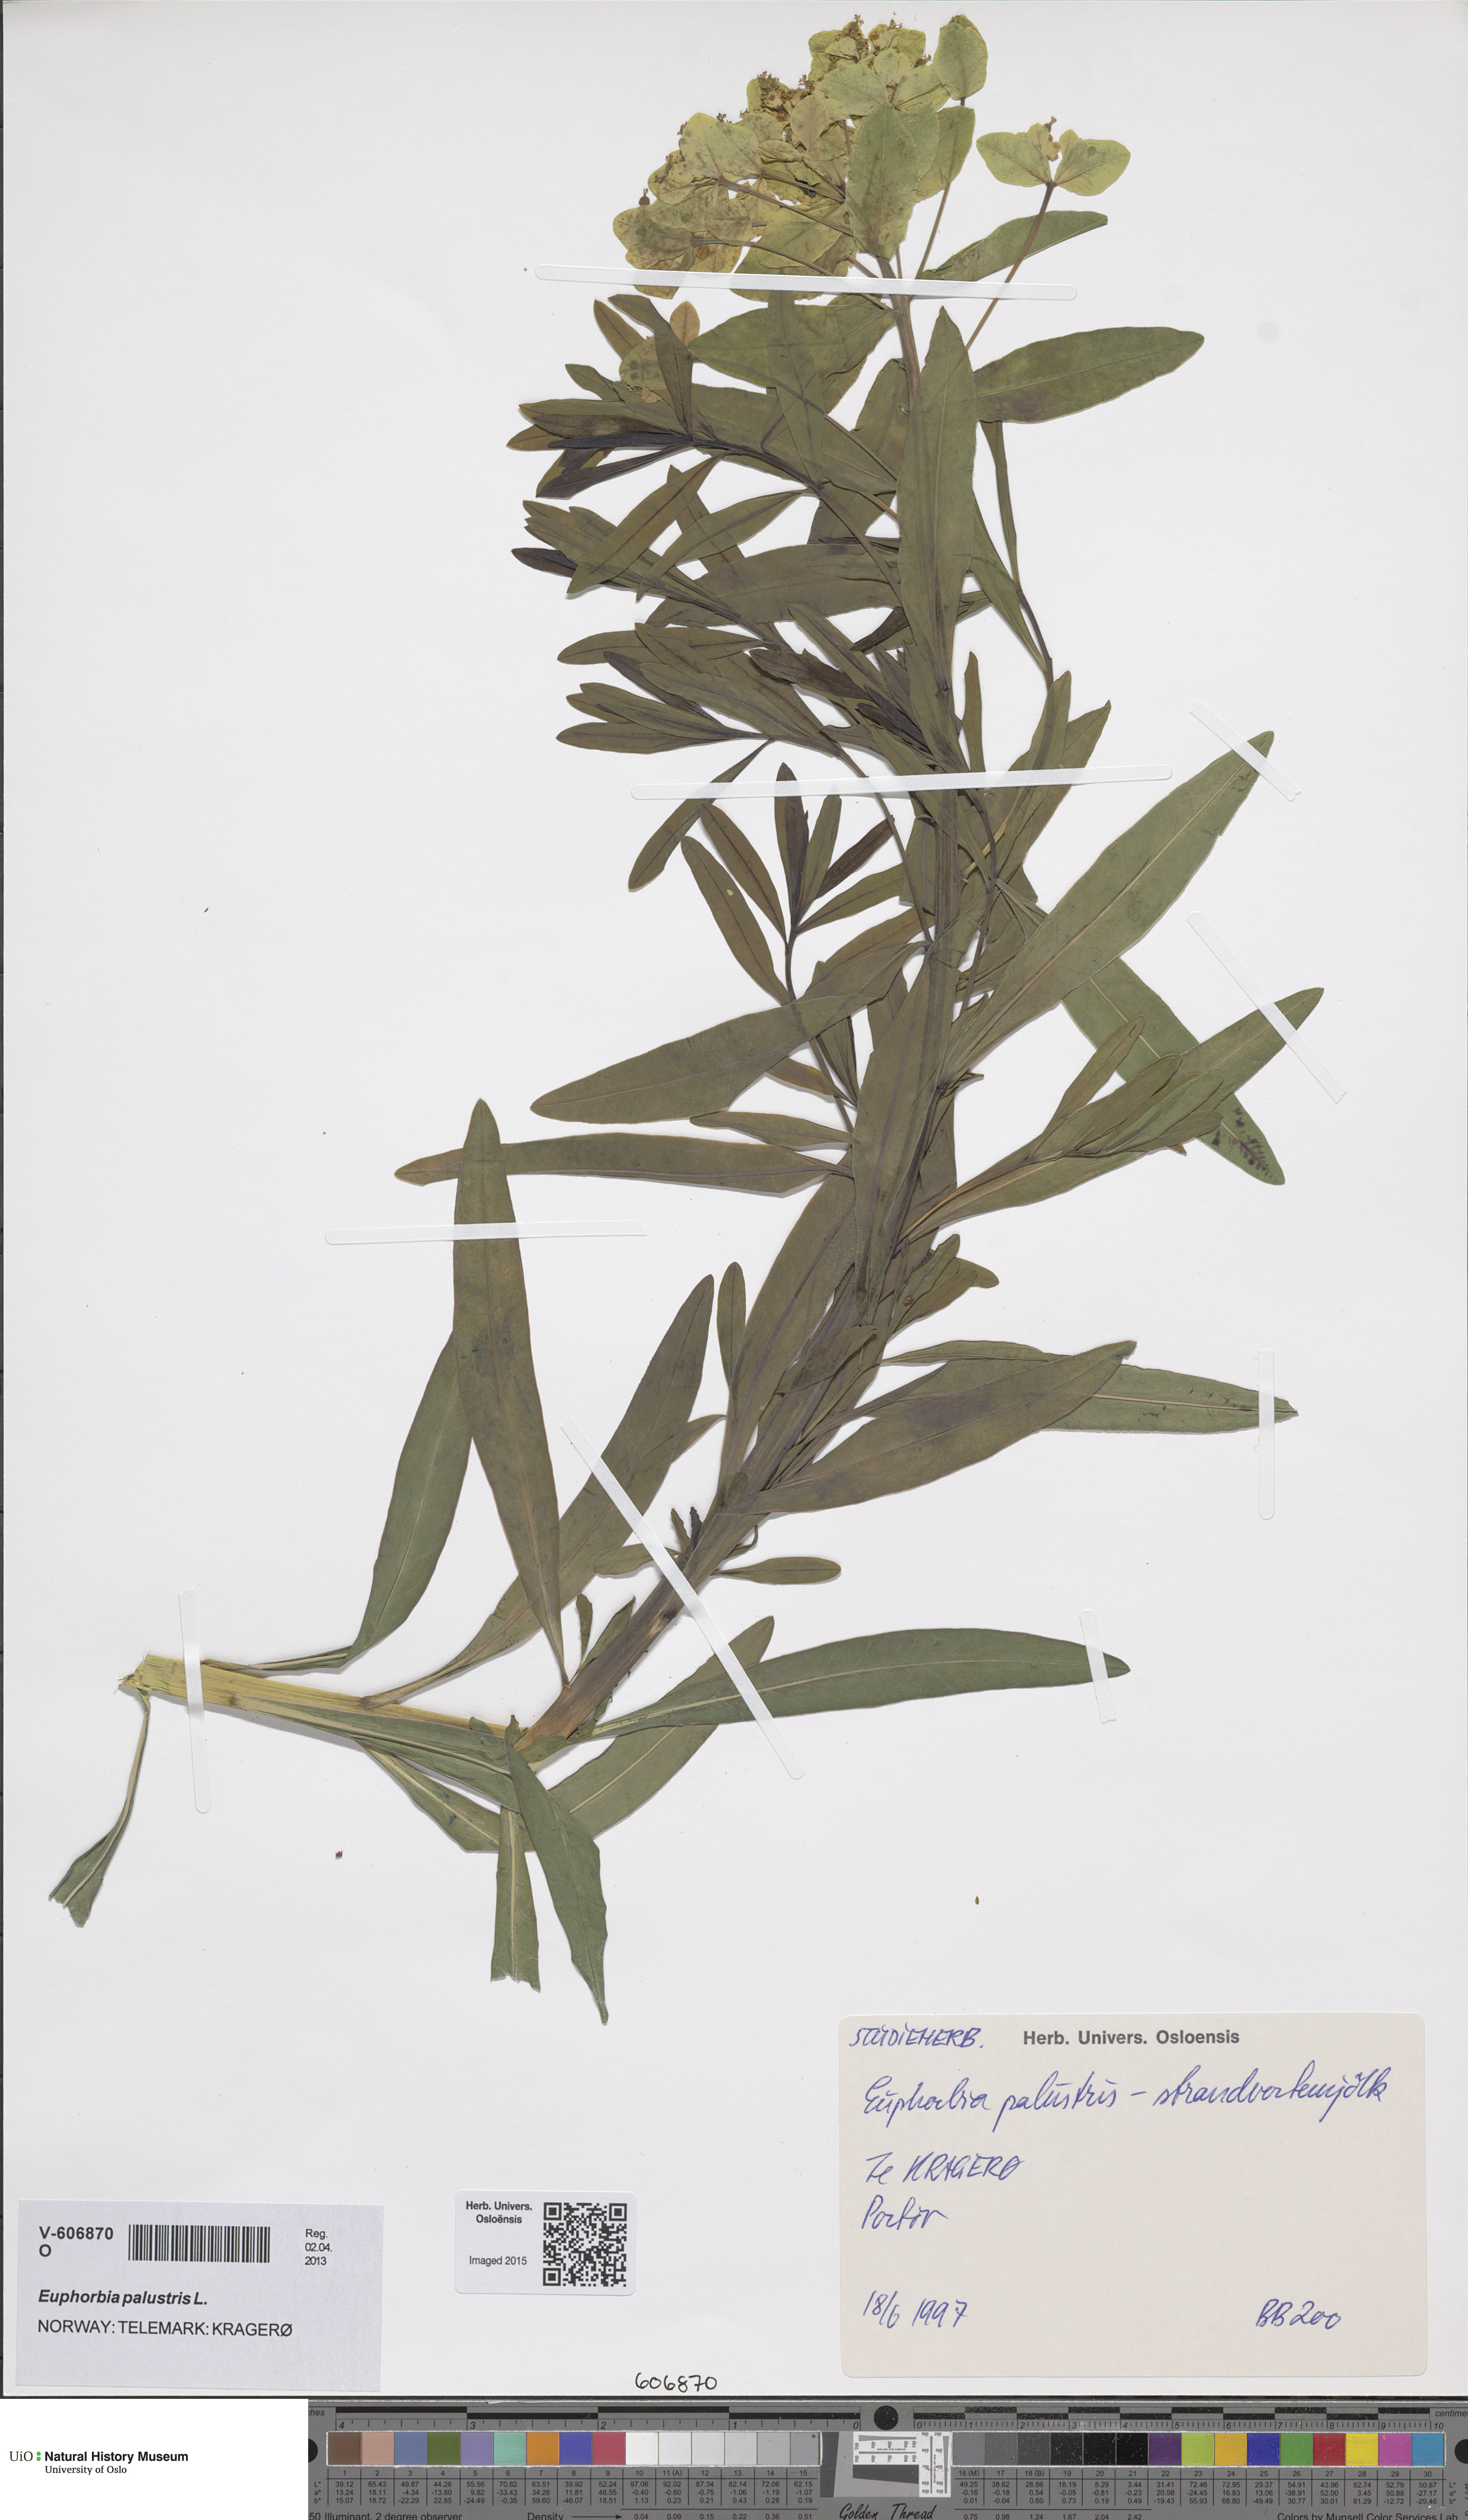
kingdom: Plantae
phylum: Tracheophyta
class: Magnoliopsida
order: Malpighiales
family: Euphorbiaceae
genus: Euphorbia
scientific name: Euphorbia palustris
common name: Marsh spurge
